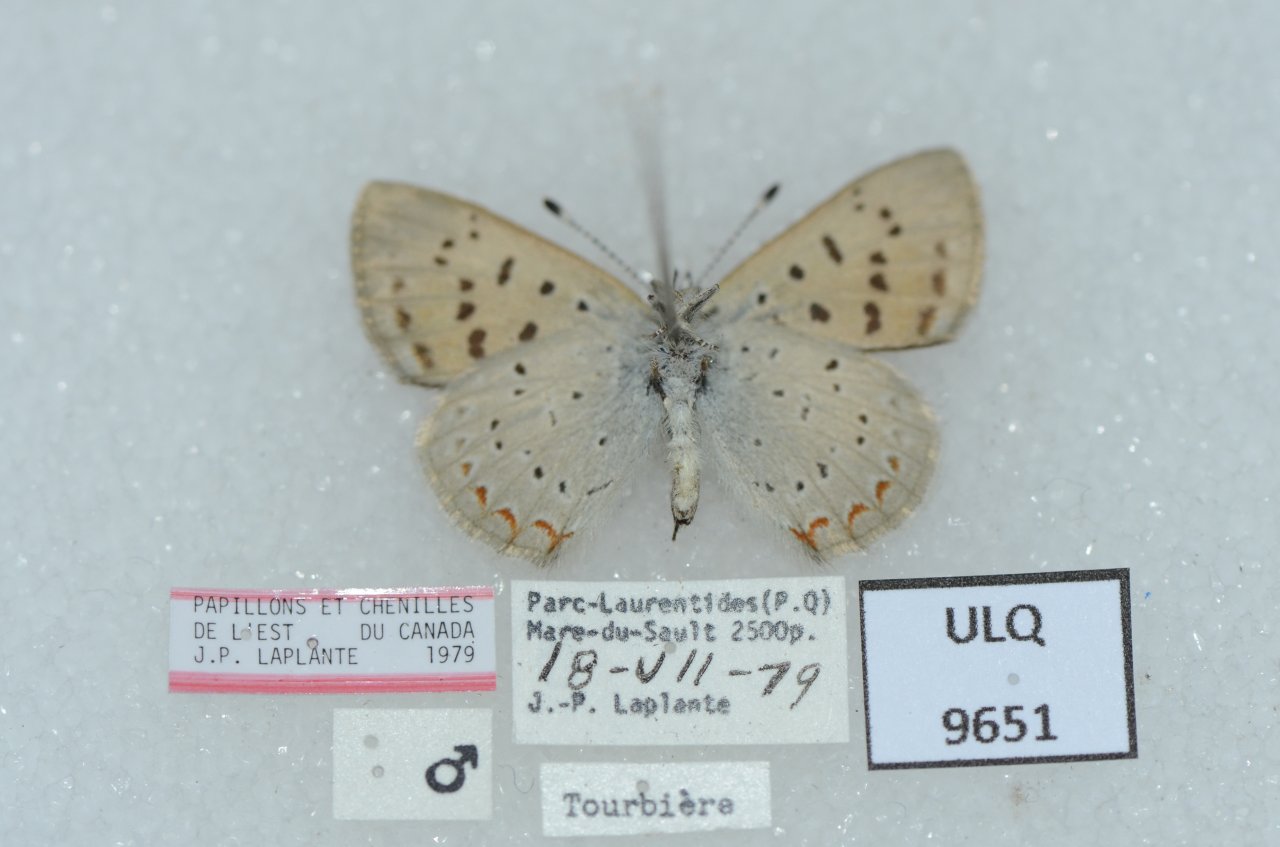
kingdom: Animalia
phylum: Arthropoda
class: Insecta
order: Lepidoptera
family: Sesiidae
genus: Sesia
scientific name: Sesia Lycaena epixanthe
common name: Bog Copper
